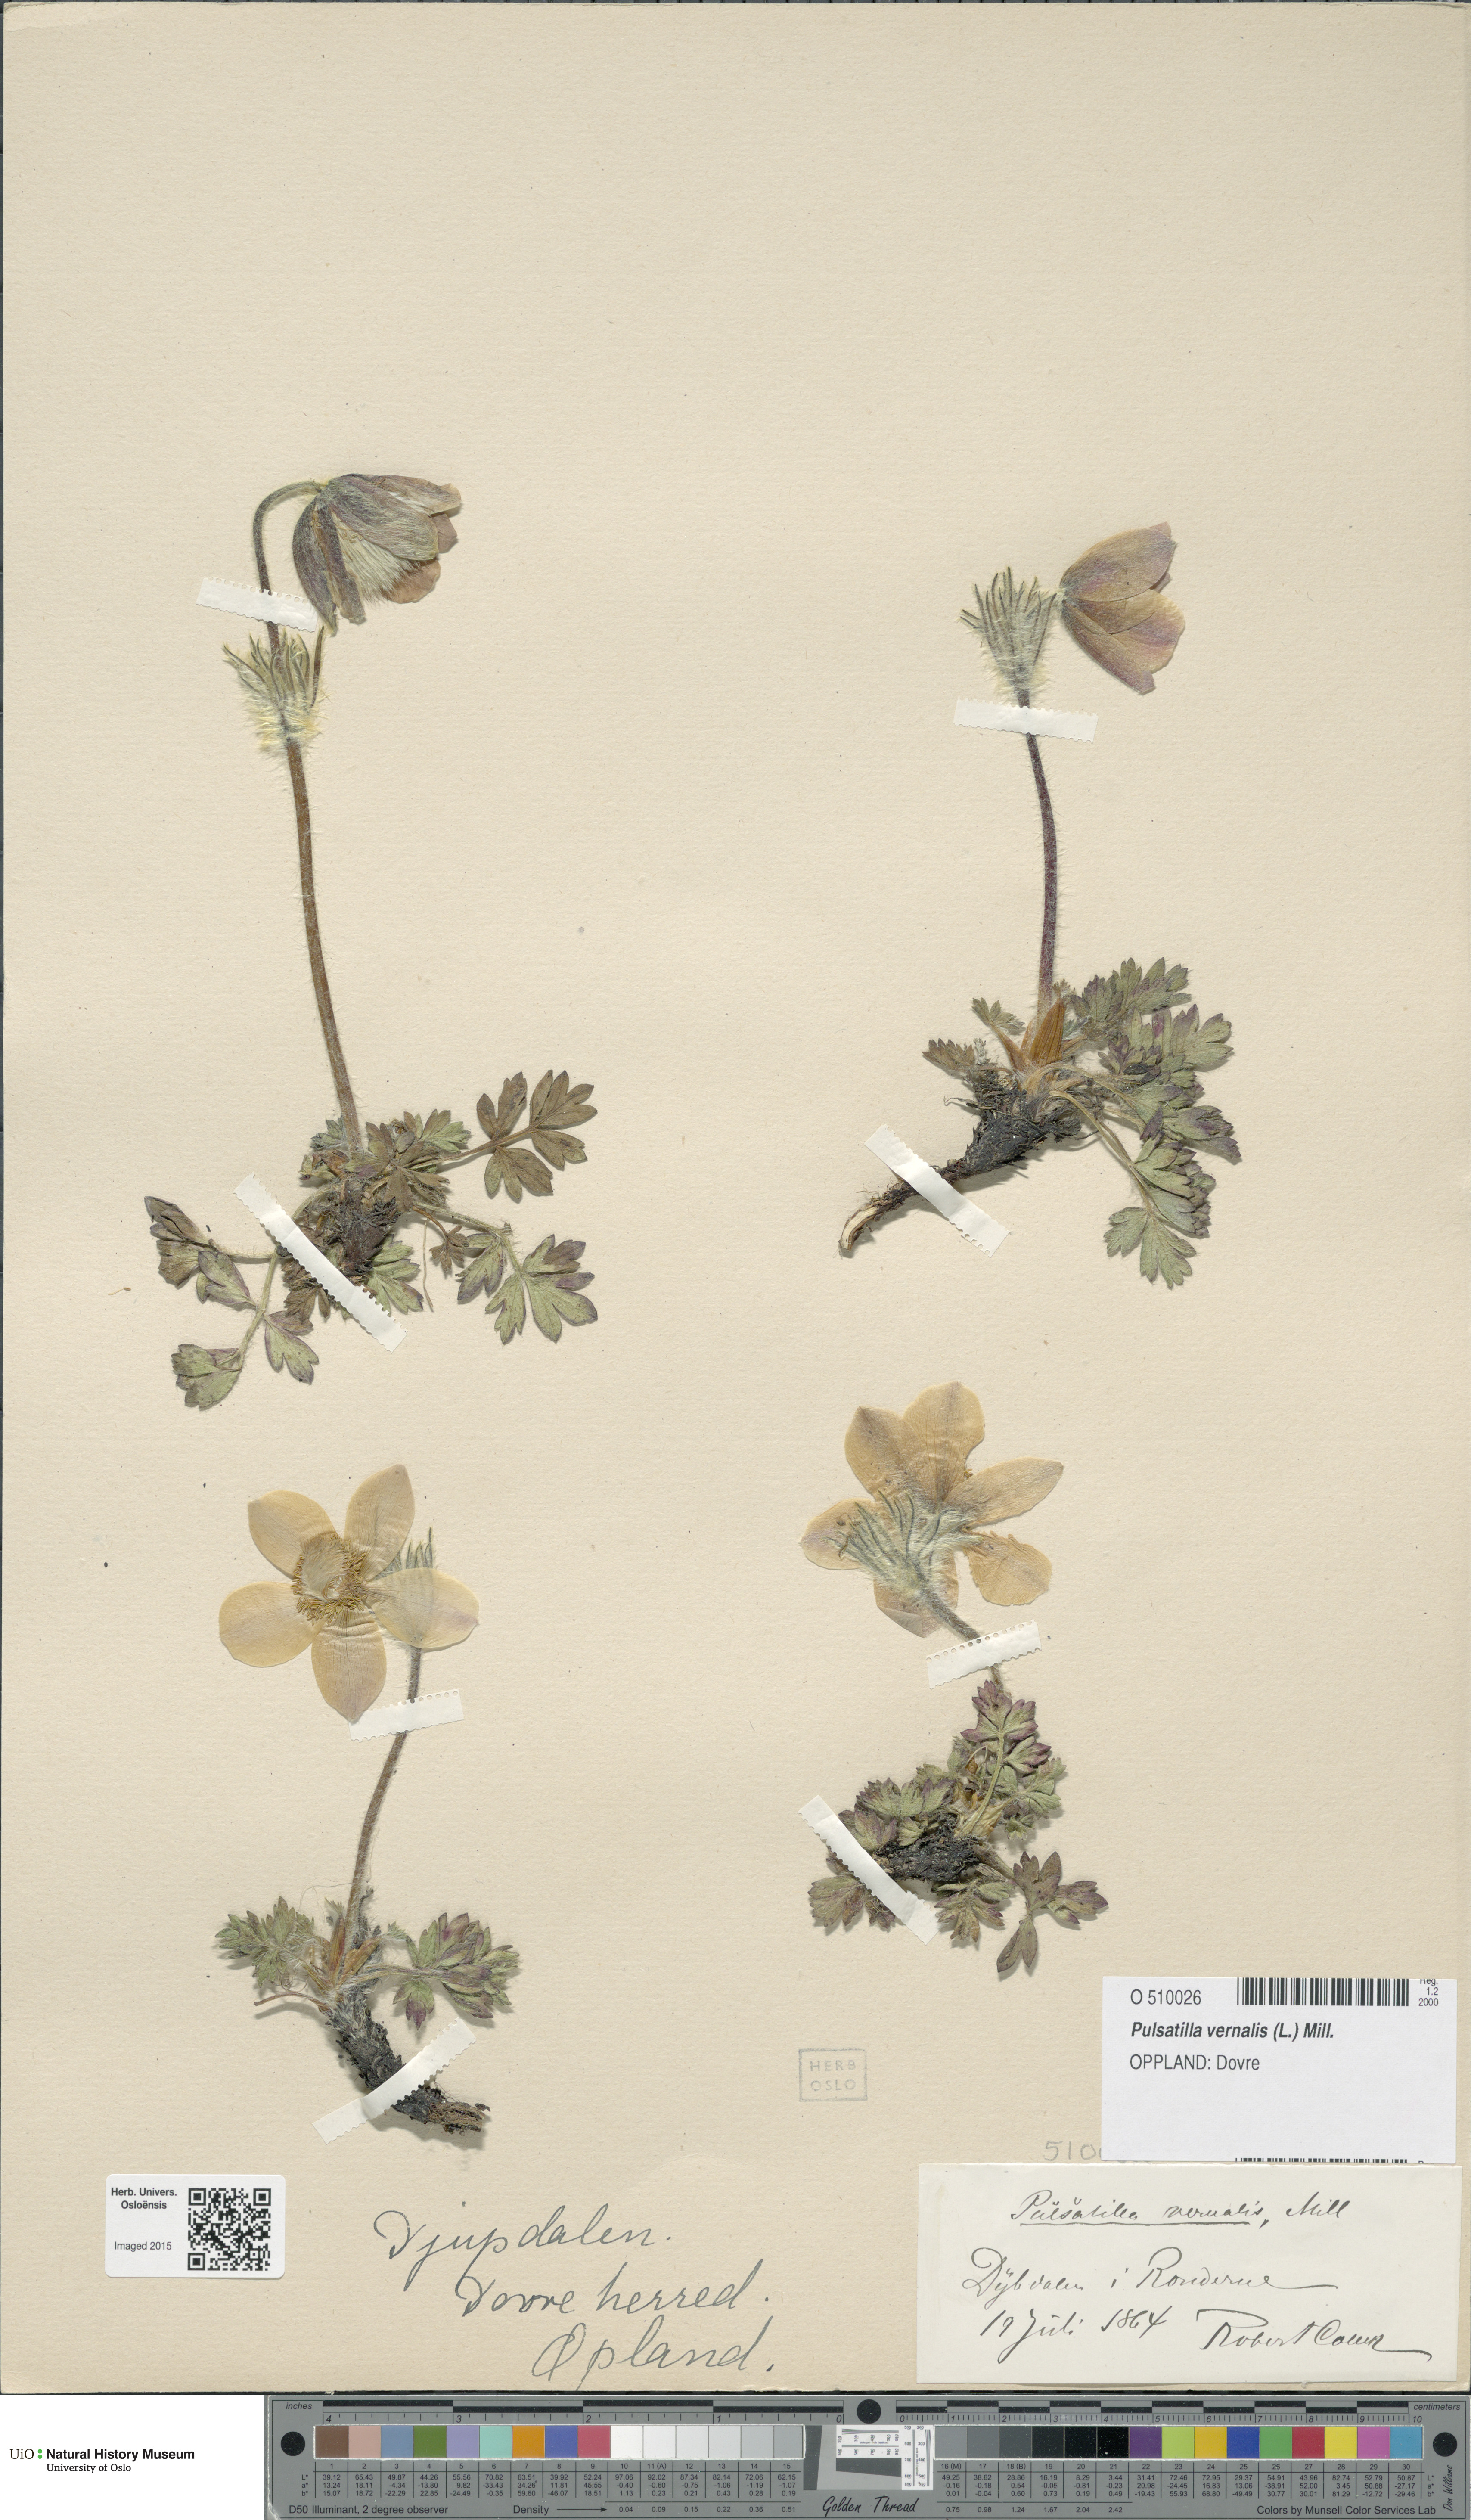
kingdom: Plantae
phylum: Tracheophyta
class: Magnoliopsida
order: Ranunculales
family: Ranunculaceae
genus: Pulsatilla
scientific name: Pulsatilla vernalis
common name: Spring pasque flower
